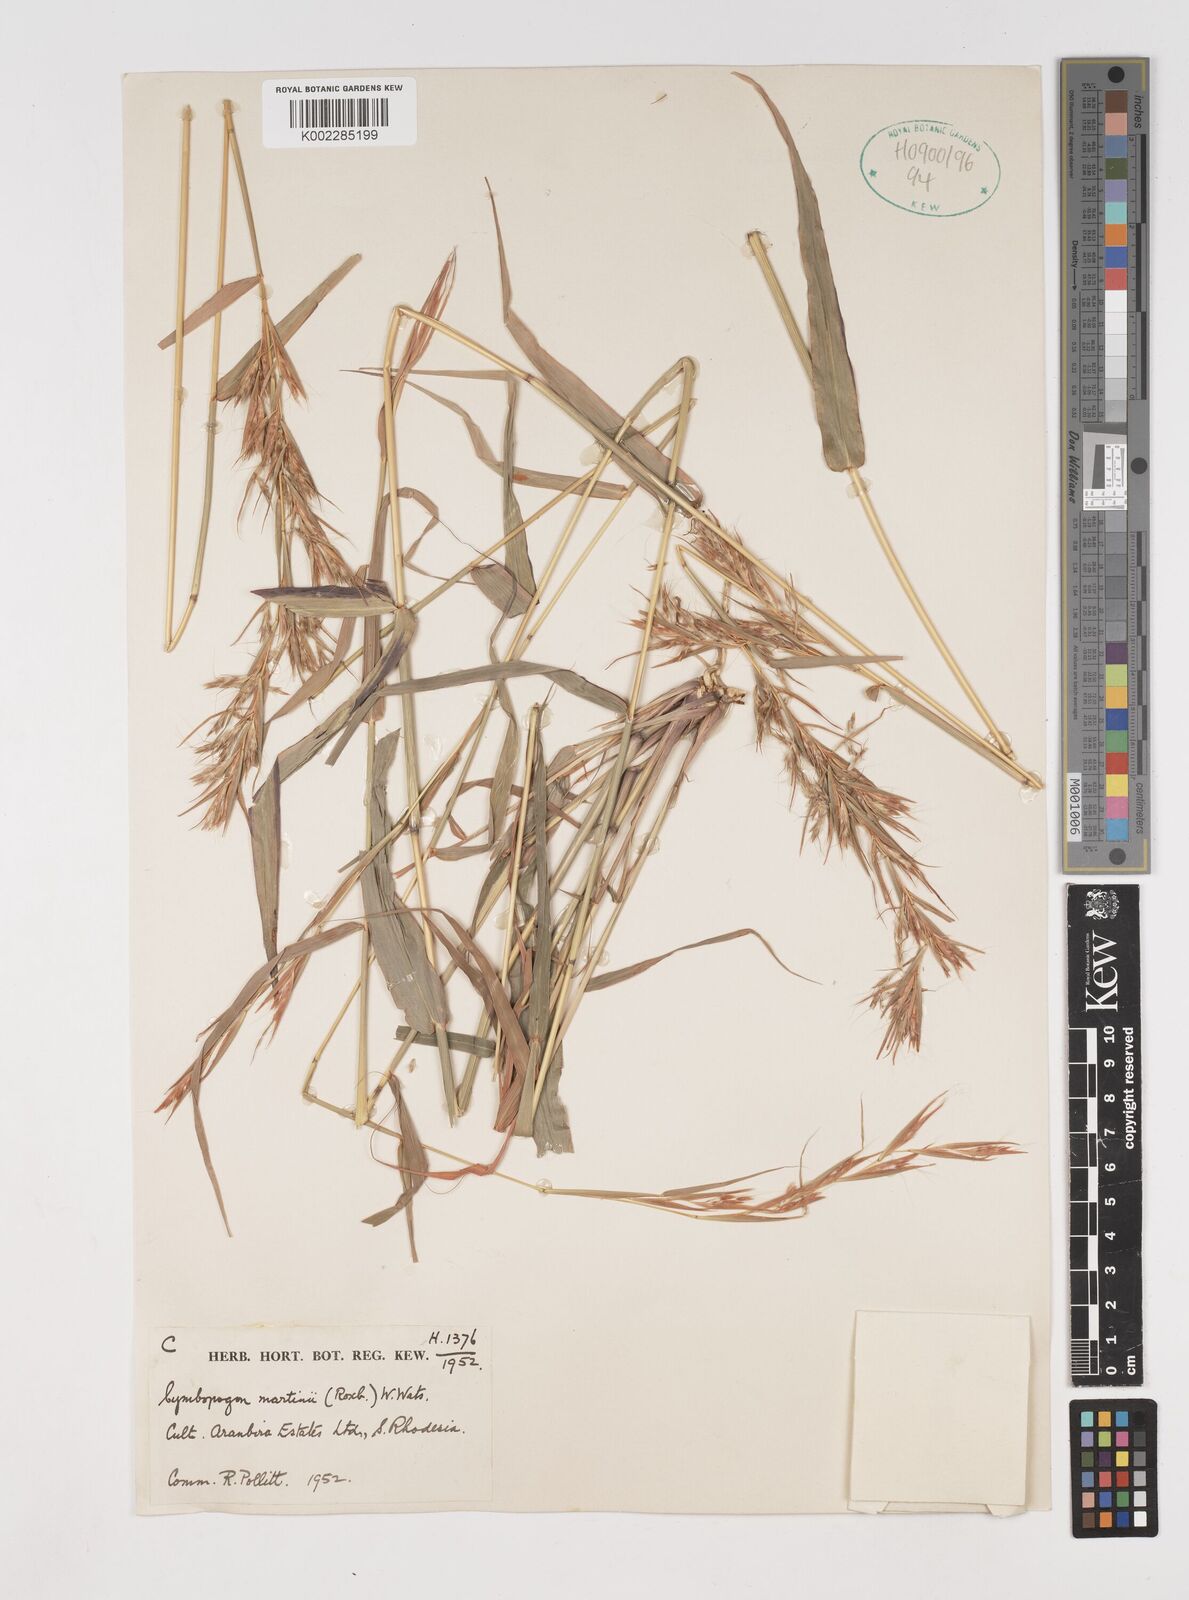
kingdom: Plantae
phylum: Tracheophyta
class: Liliopsida
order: Poales
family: Poaceae
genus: Cymbopogon
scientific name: Cymbopogon martini
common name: Ginger grass
